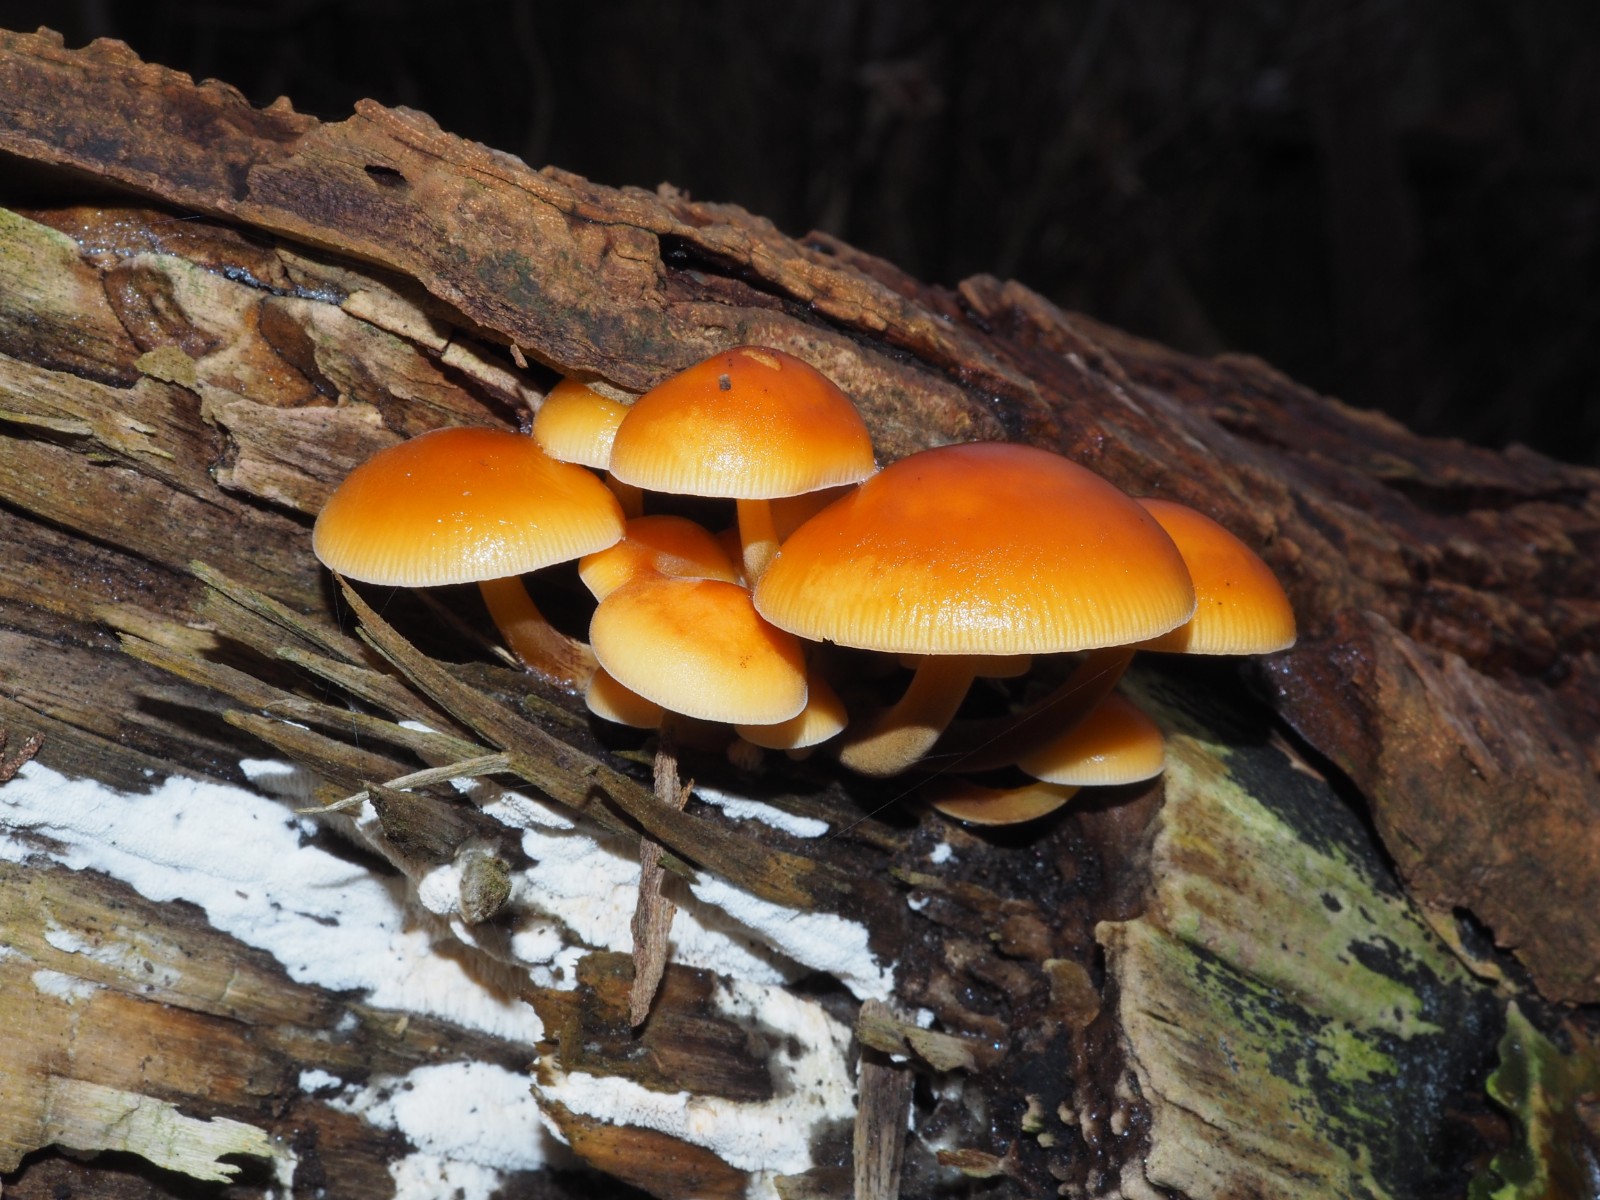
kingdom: Fungi
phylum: Basidiomycota
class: Agaricomycetes
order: Agaricales
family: Physalacriaceae
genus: Flammulina
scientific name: Flammulina velutipes
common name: gul fløjlsfod
